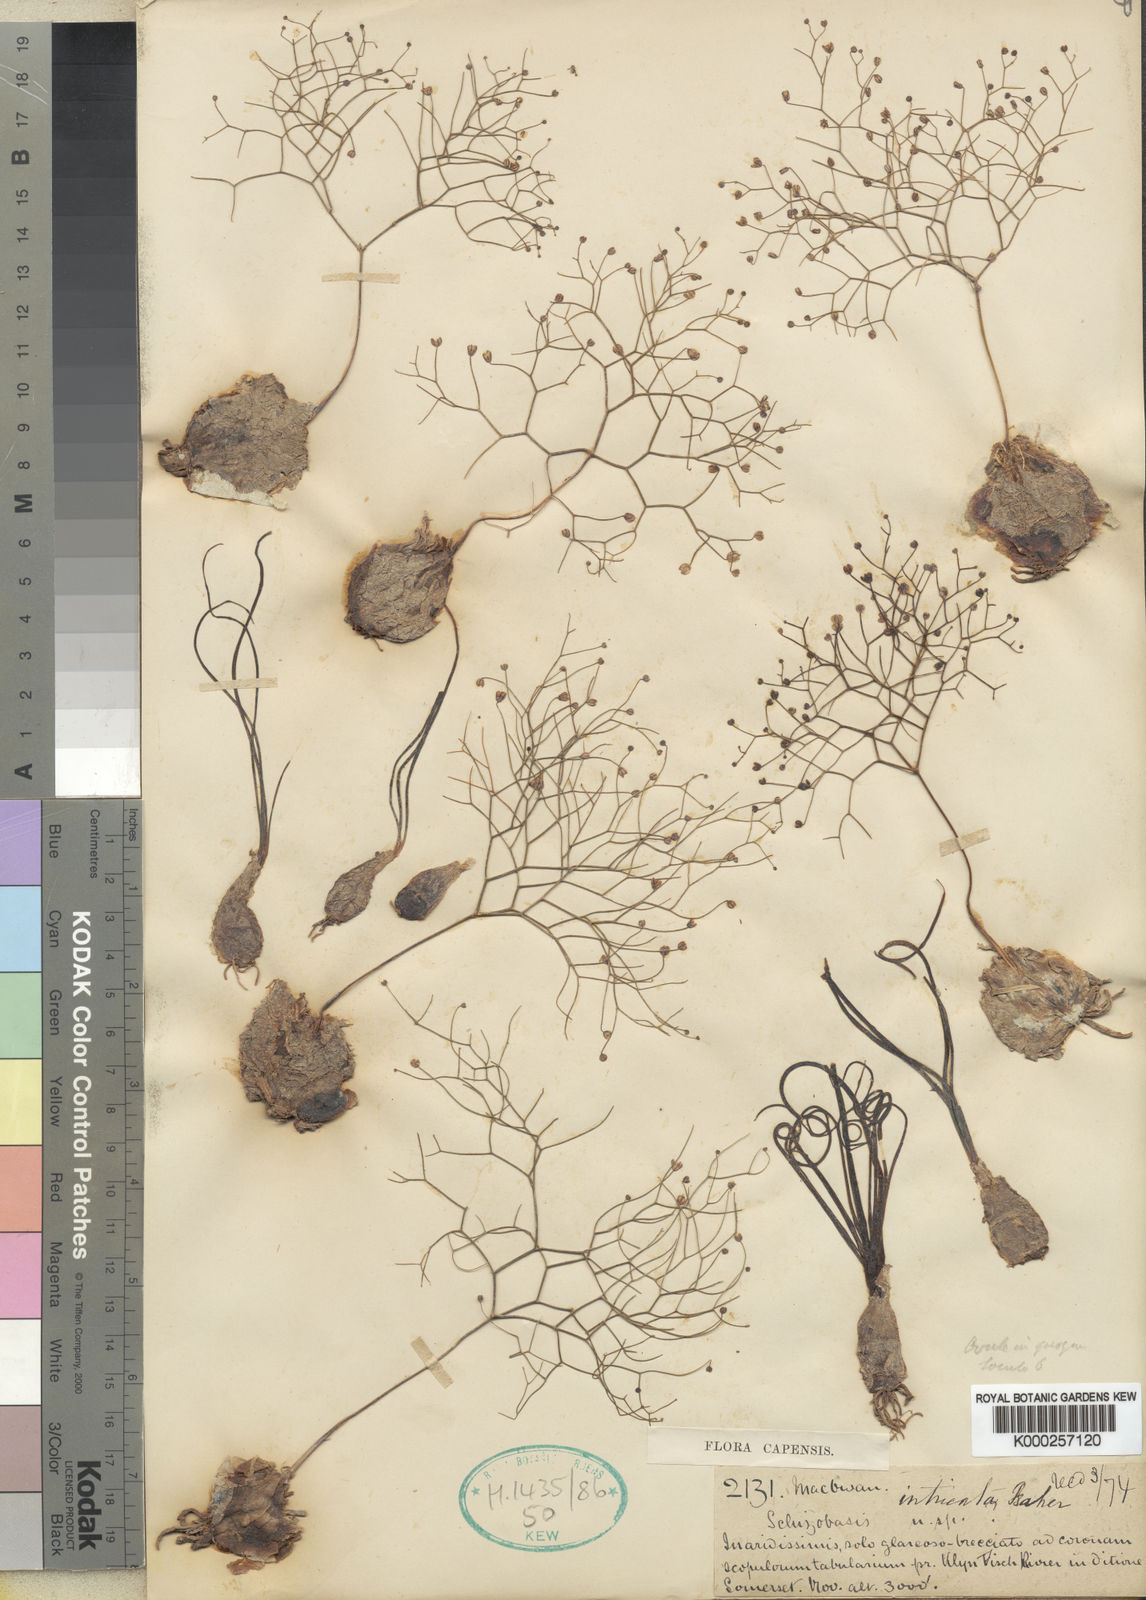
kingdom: Plantae
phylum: Tracheophyta
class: Liliopsida
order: Asparagales
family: Asparagaceae
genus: Drimia
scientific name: Drimia intricata
